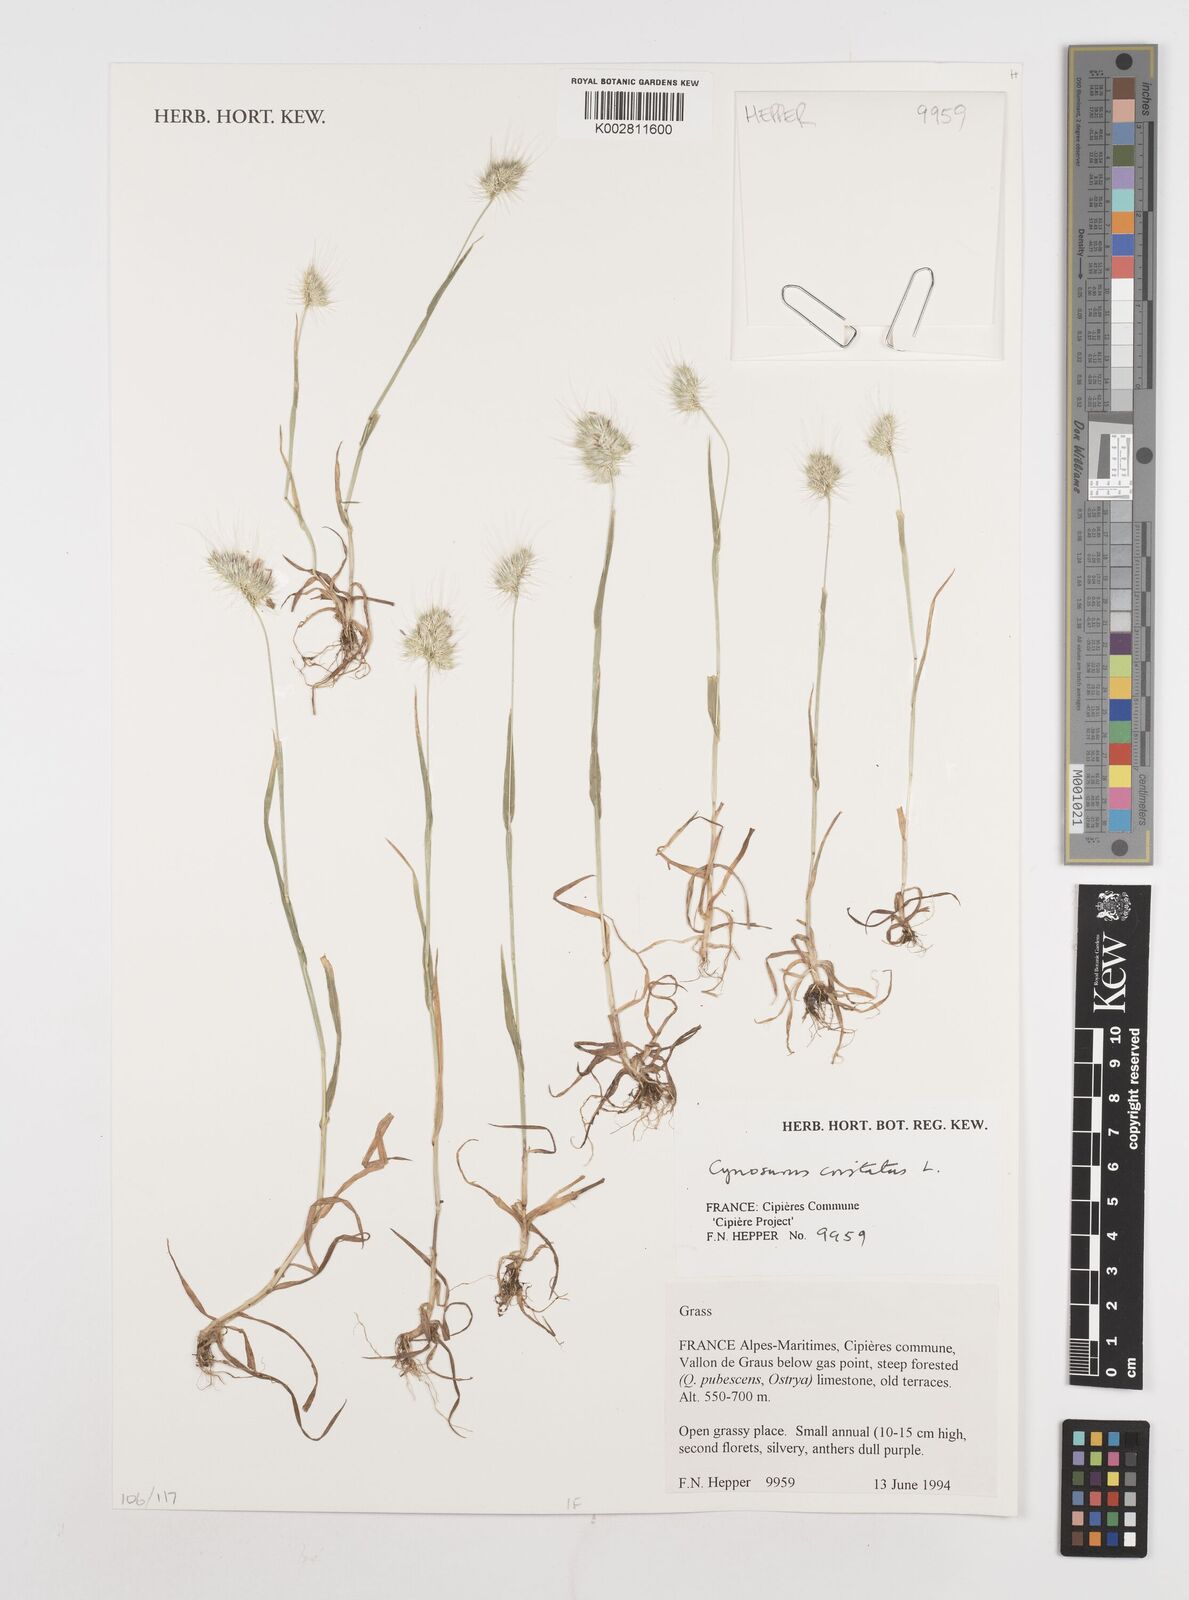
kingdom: Plantae
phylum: Tracheophyta
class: Liliopsida
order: Poales
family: Poaceae
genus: Cynosurus
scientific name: Cynosurus cristatus
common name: Crested dog's-tail
